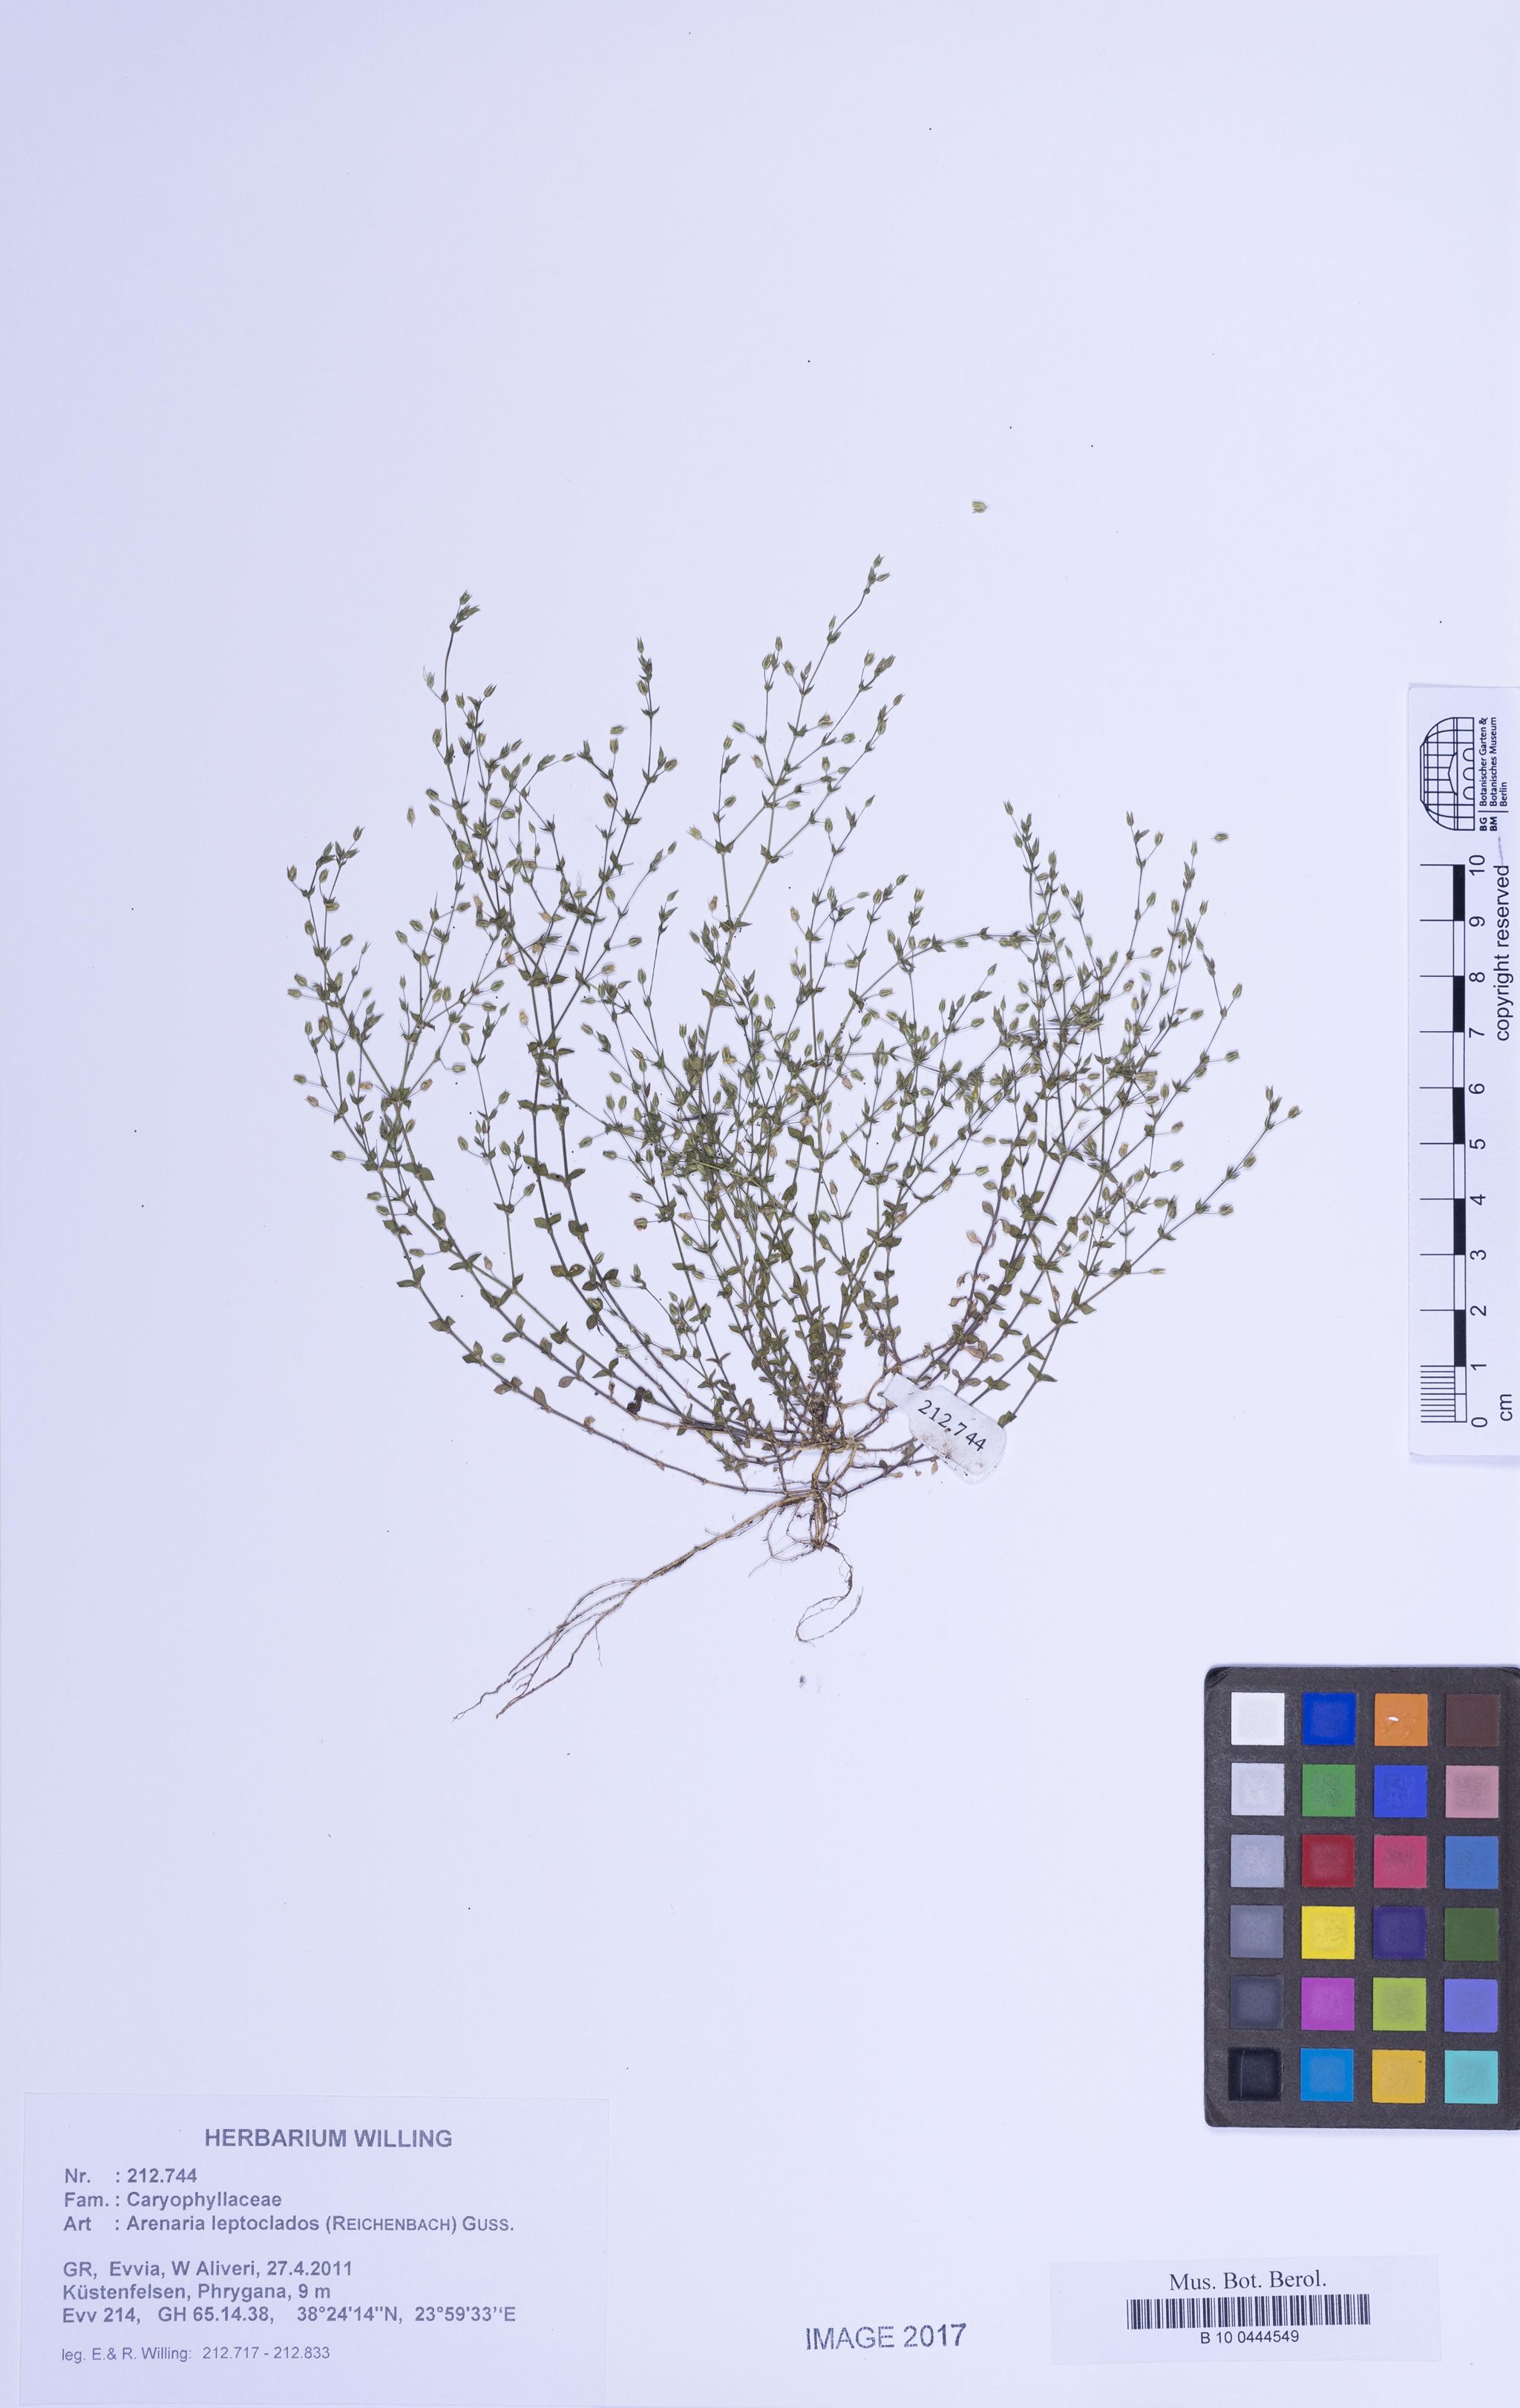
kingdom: Plantae
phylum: Tracheophyta
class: Magnoliopsida
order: Caryophyllales
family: Caryophyllaceae
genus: Arenaria
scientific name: Arenaria leptoclados
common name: Thyme-leaved sandwort
